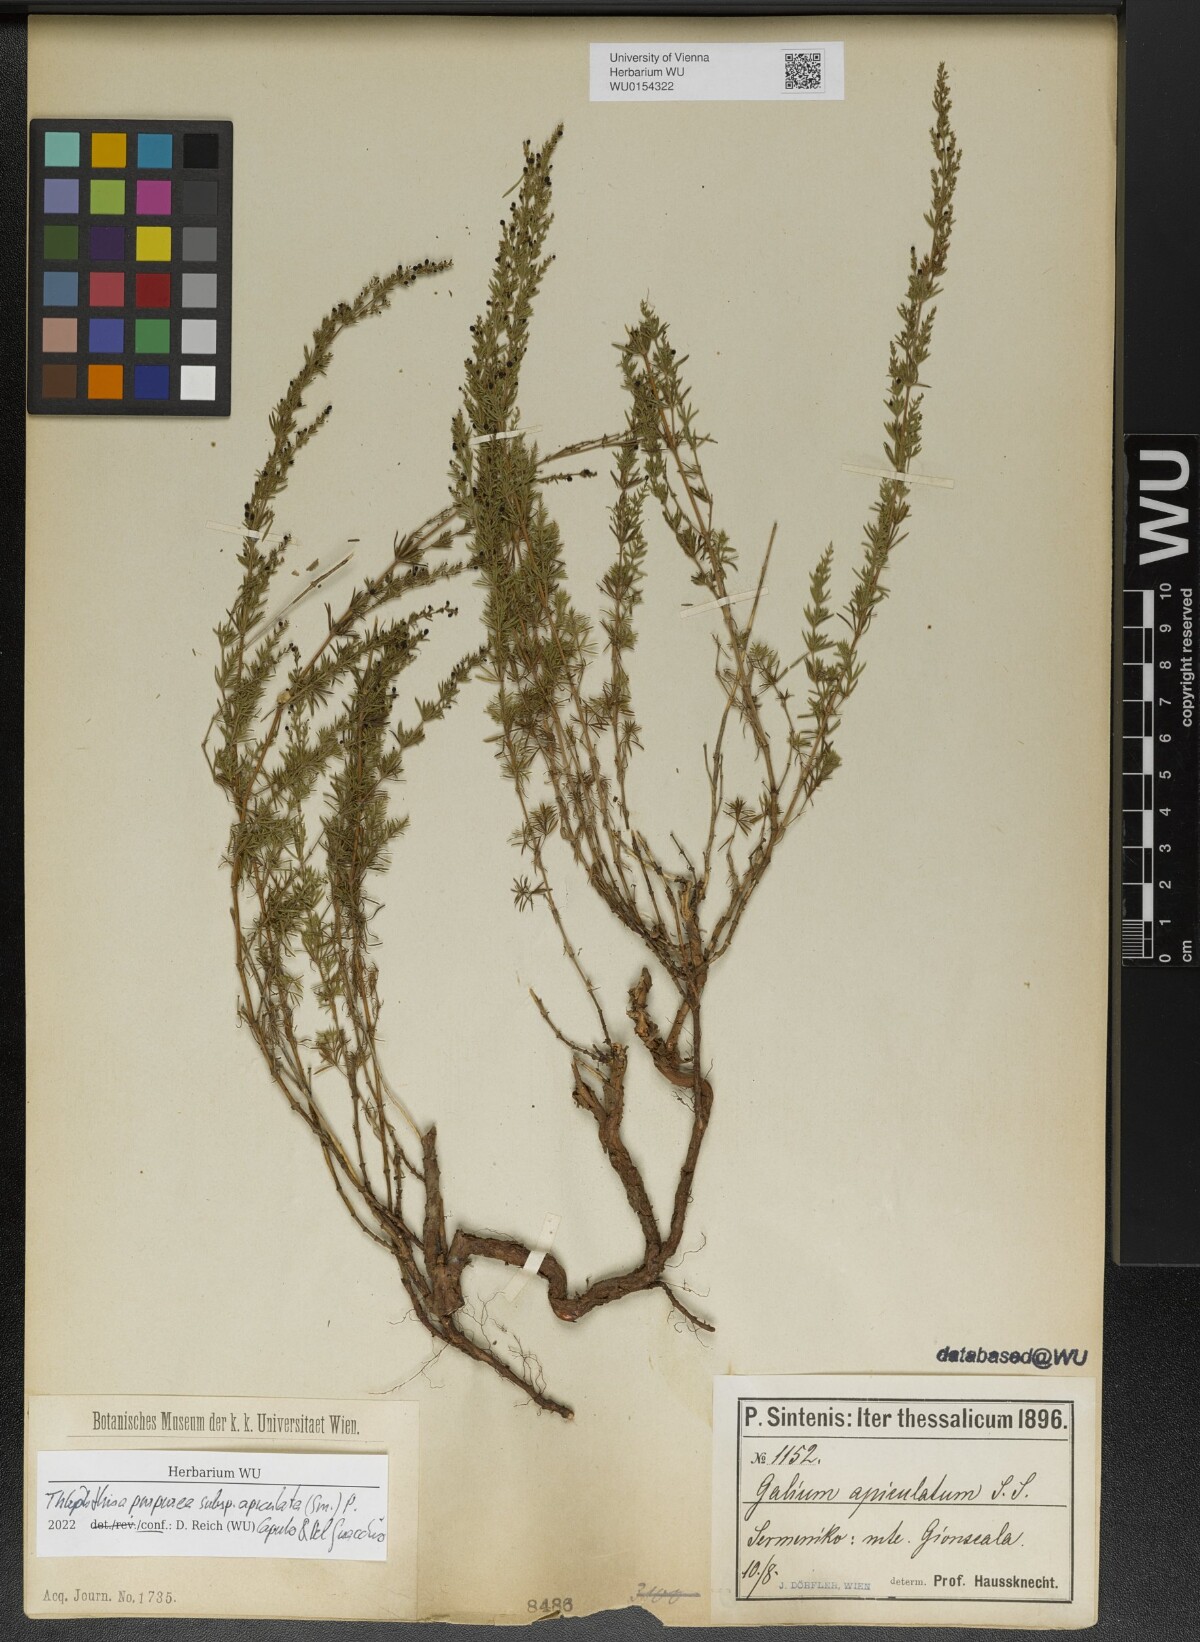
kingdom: Plantae
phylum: Tracheophyta
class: Magnoliopsida
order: Gentianales
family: Rubiaceae
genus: Thliphthisa
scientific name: Thliphthisa purpurea
